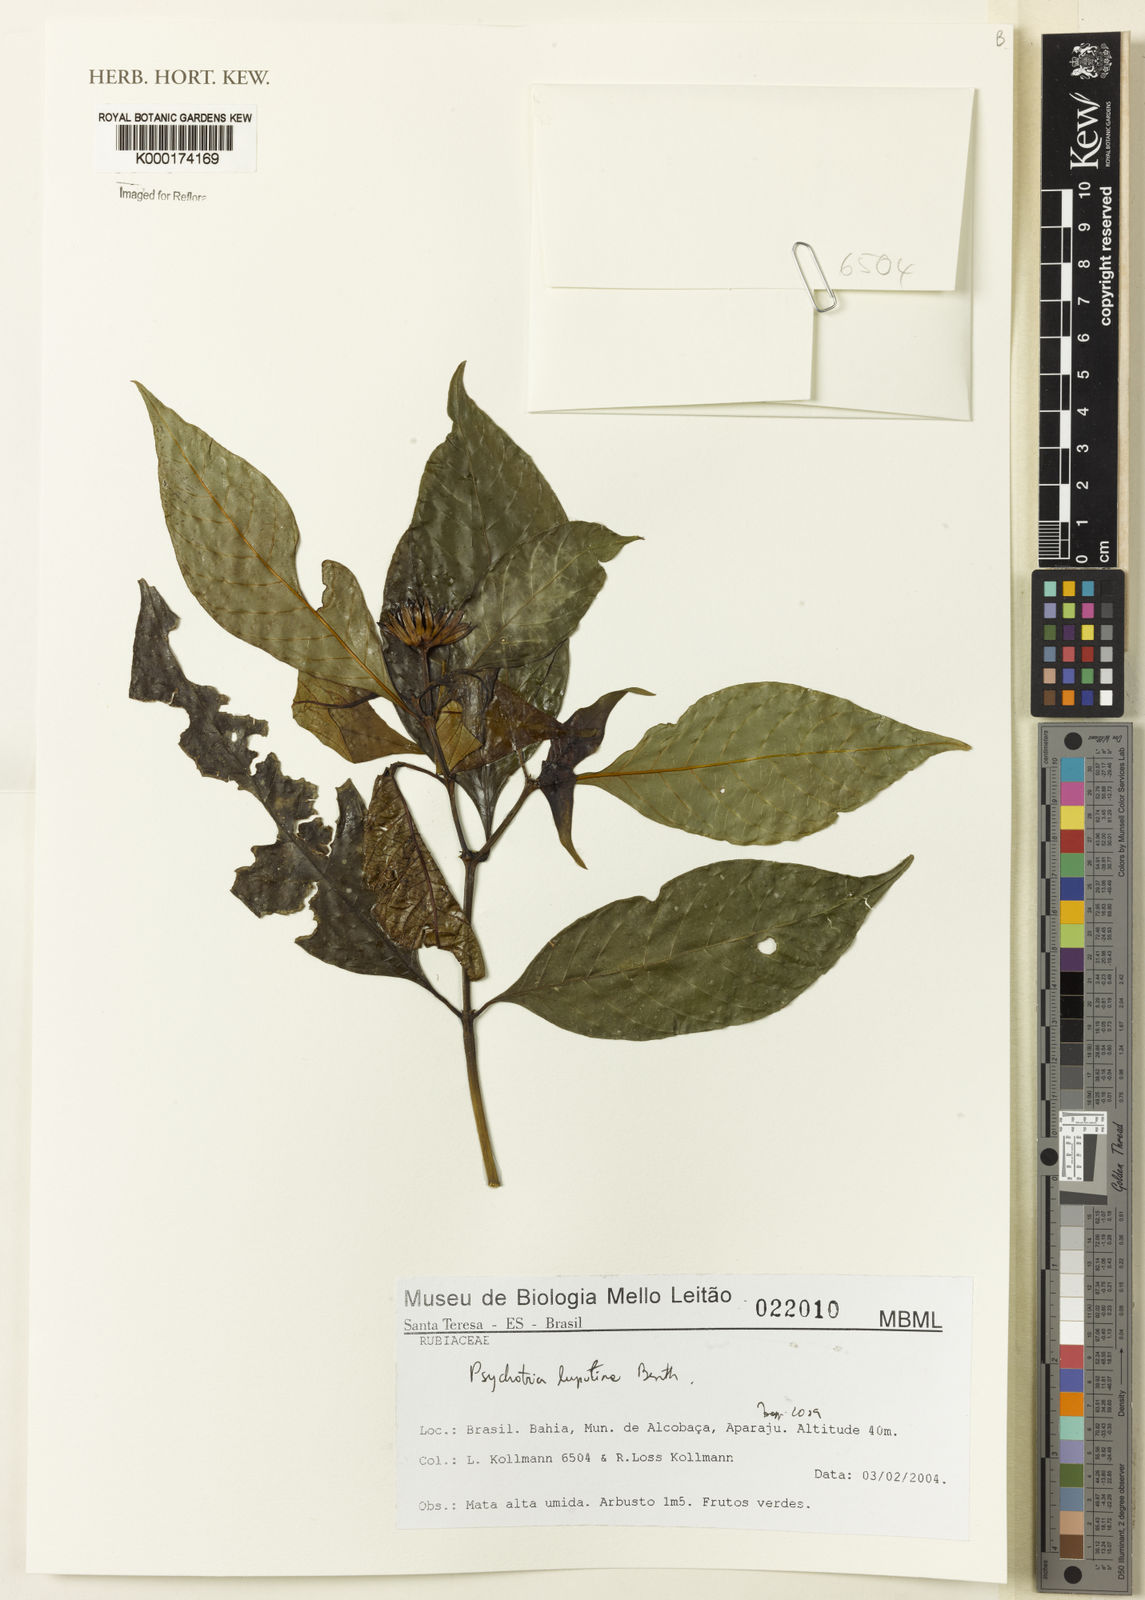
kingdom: Plantae
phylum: Tracheophyta
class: Magnoliopsida
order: Gentianales
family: Rubiaceae
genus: Palicourea
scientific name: Palicourea justiciifolia
